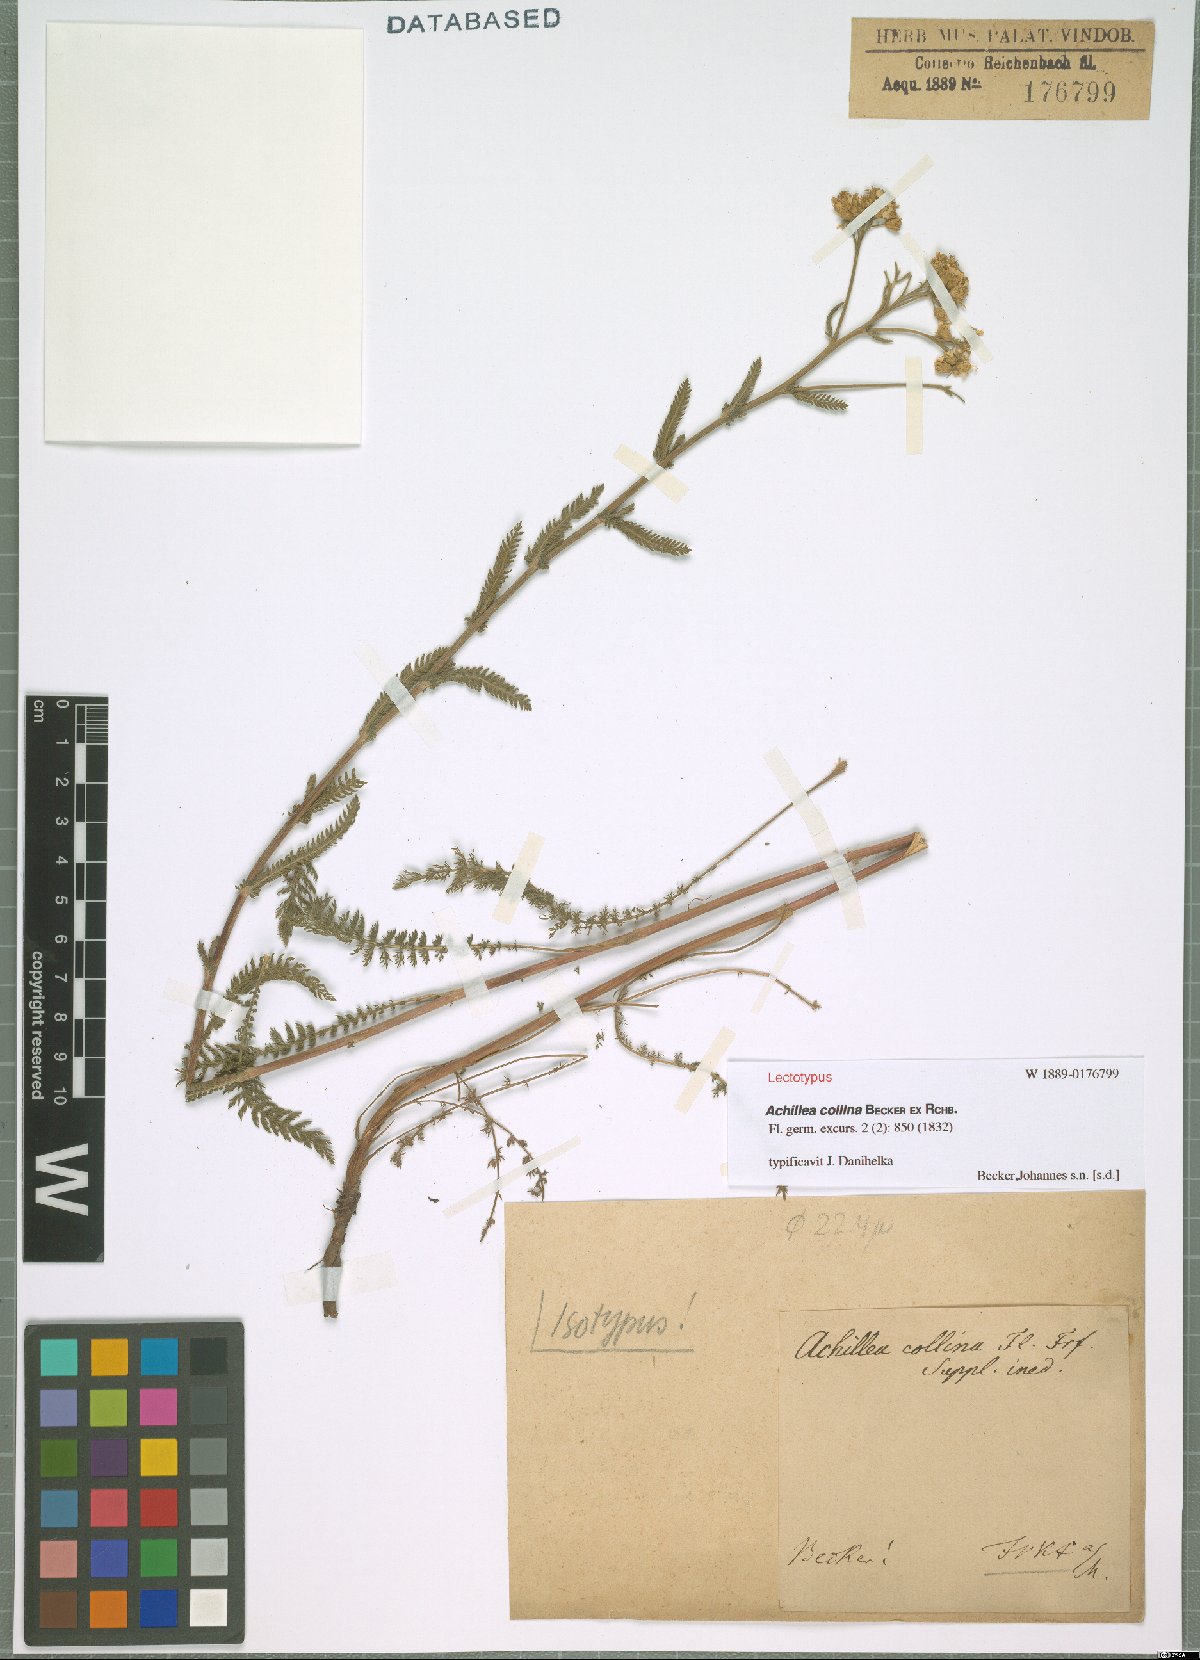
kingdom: Plantae
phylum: Tracheophyta
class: Magnoliopsida
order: Asterales
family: Asteraceae
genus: Achillea
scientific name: Achillea collina
